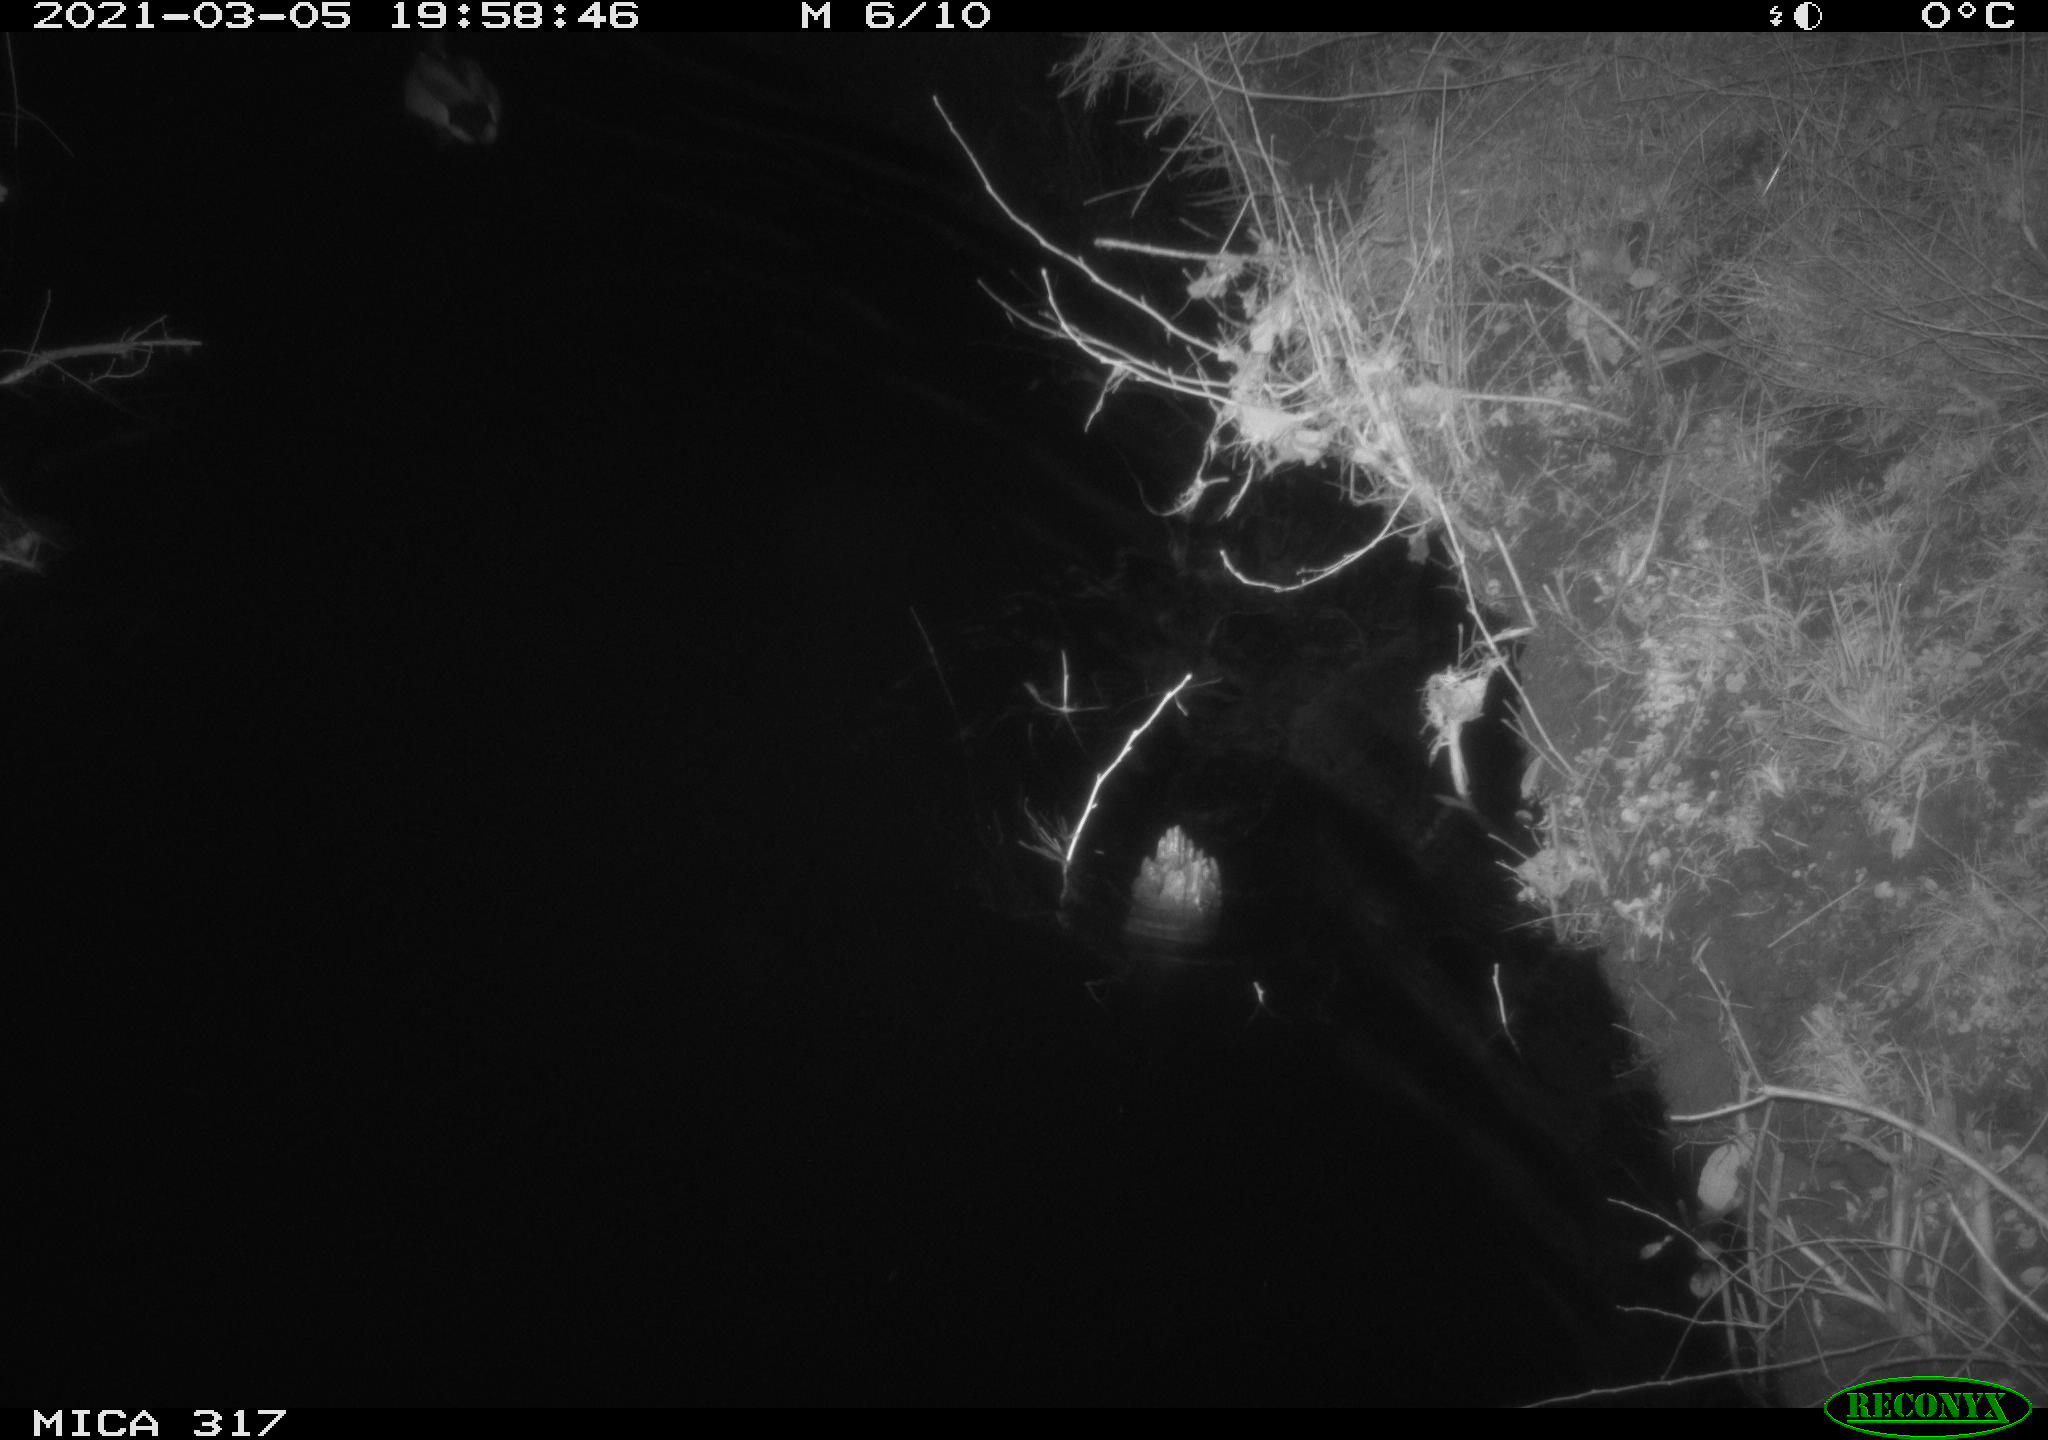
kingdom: Animalia
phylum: Chordata
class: Aves
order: Anseriformes
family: Anatidae
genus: Anas
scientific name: Anas platyrhynchos
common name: Mallard
